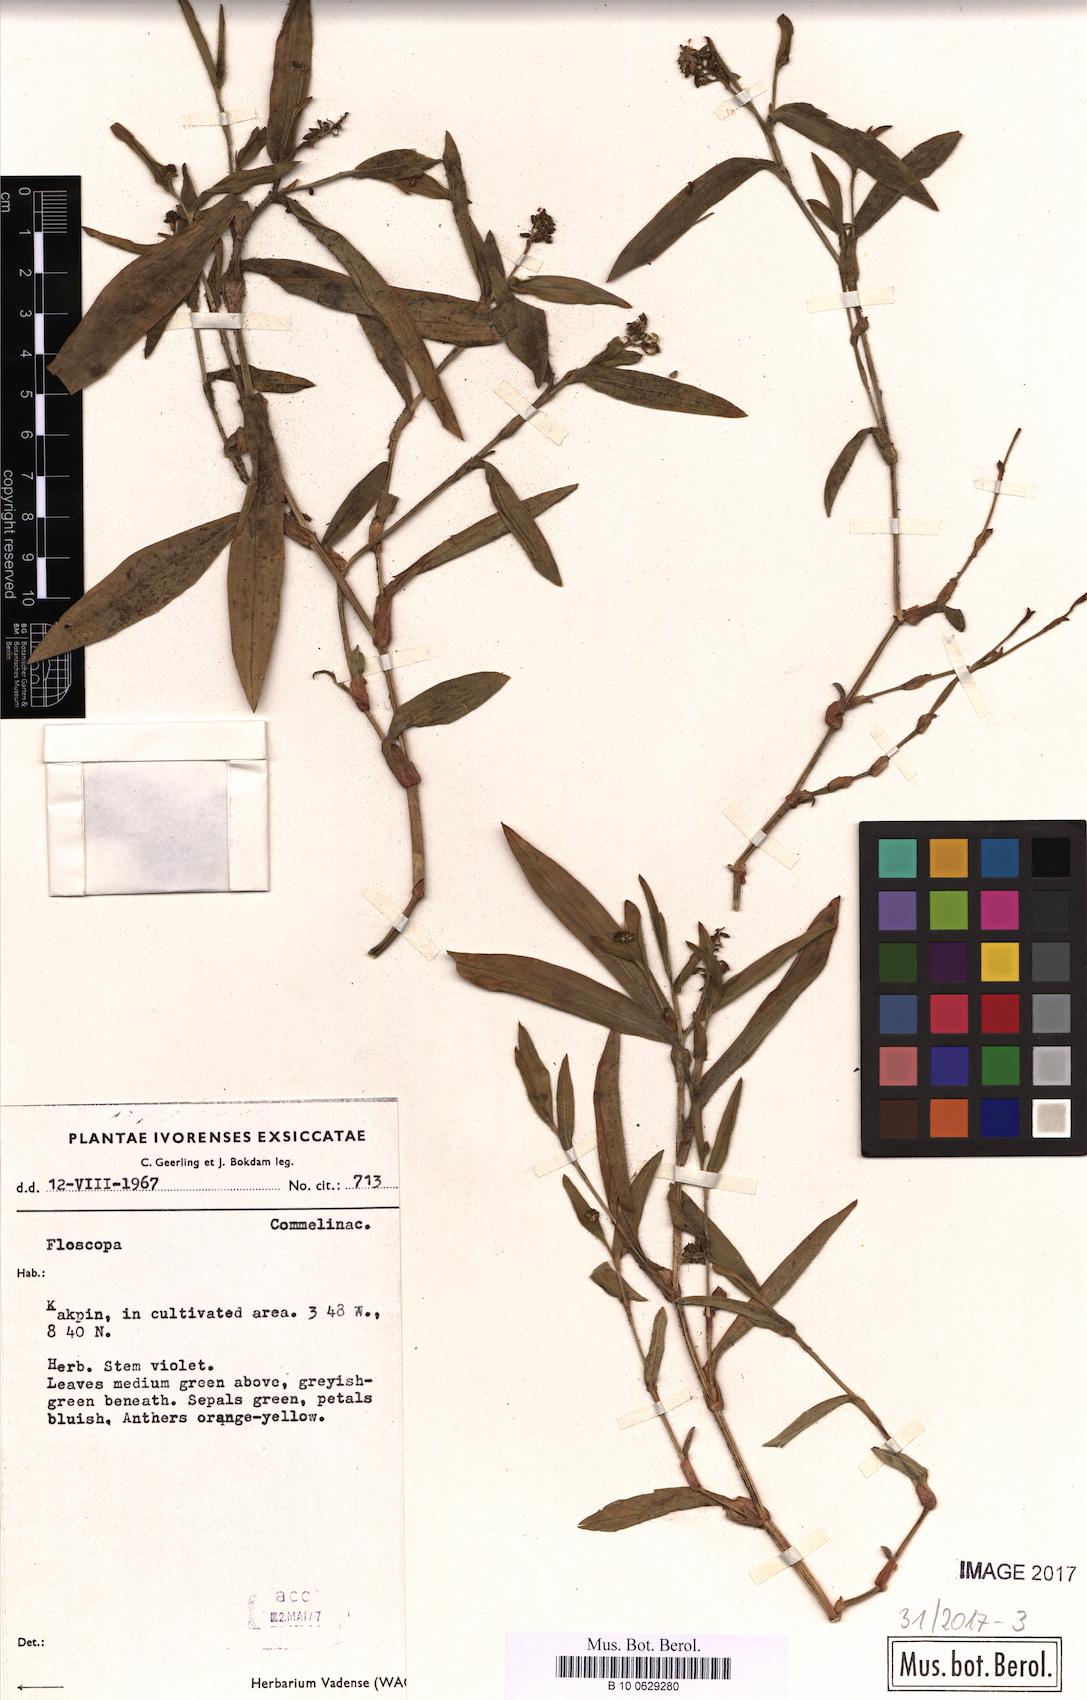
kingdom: Plantae
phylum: Tracheophyta
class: Liliopsida
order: Commelinales
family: Commelinaceae
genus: Floscopa
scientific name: Floscopa
